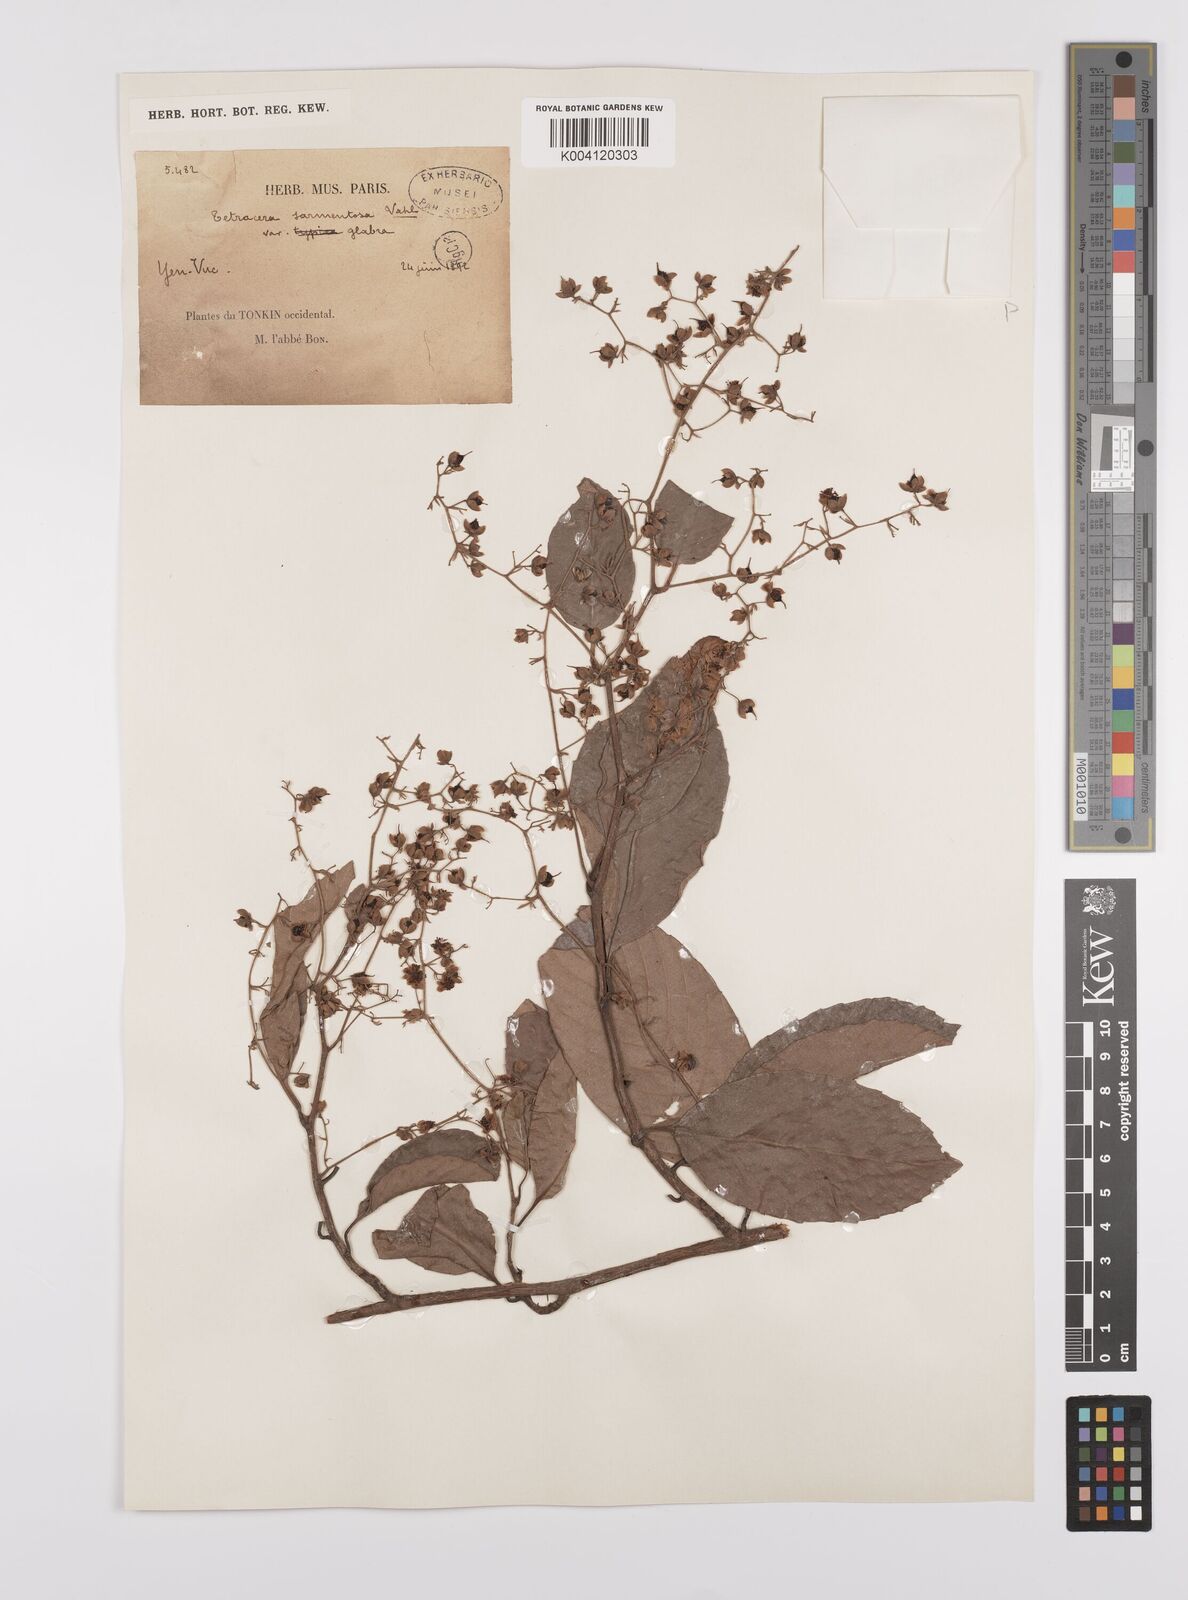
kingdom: Plantae
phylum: Tracheophyta
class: Magnoliopsida
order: Dilleniales
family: Dilleniaceae
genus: Tetracera
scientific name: Tetracera sarmentosa
